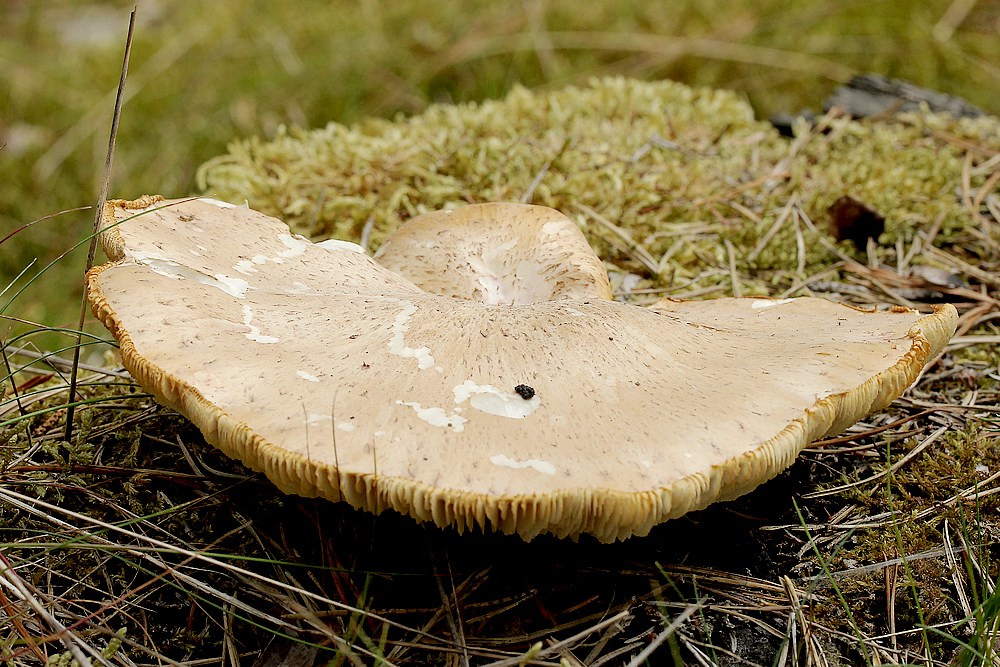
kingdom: Fungi
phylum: Basidiomycota
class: Agaricomycetes
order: Gloeophyllales
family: Gloeophyllaceae
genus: Neolentinus
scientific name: Neolentinus lepideus
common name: skællet sejhat
